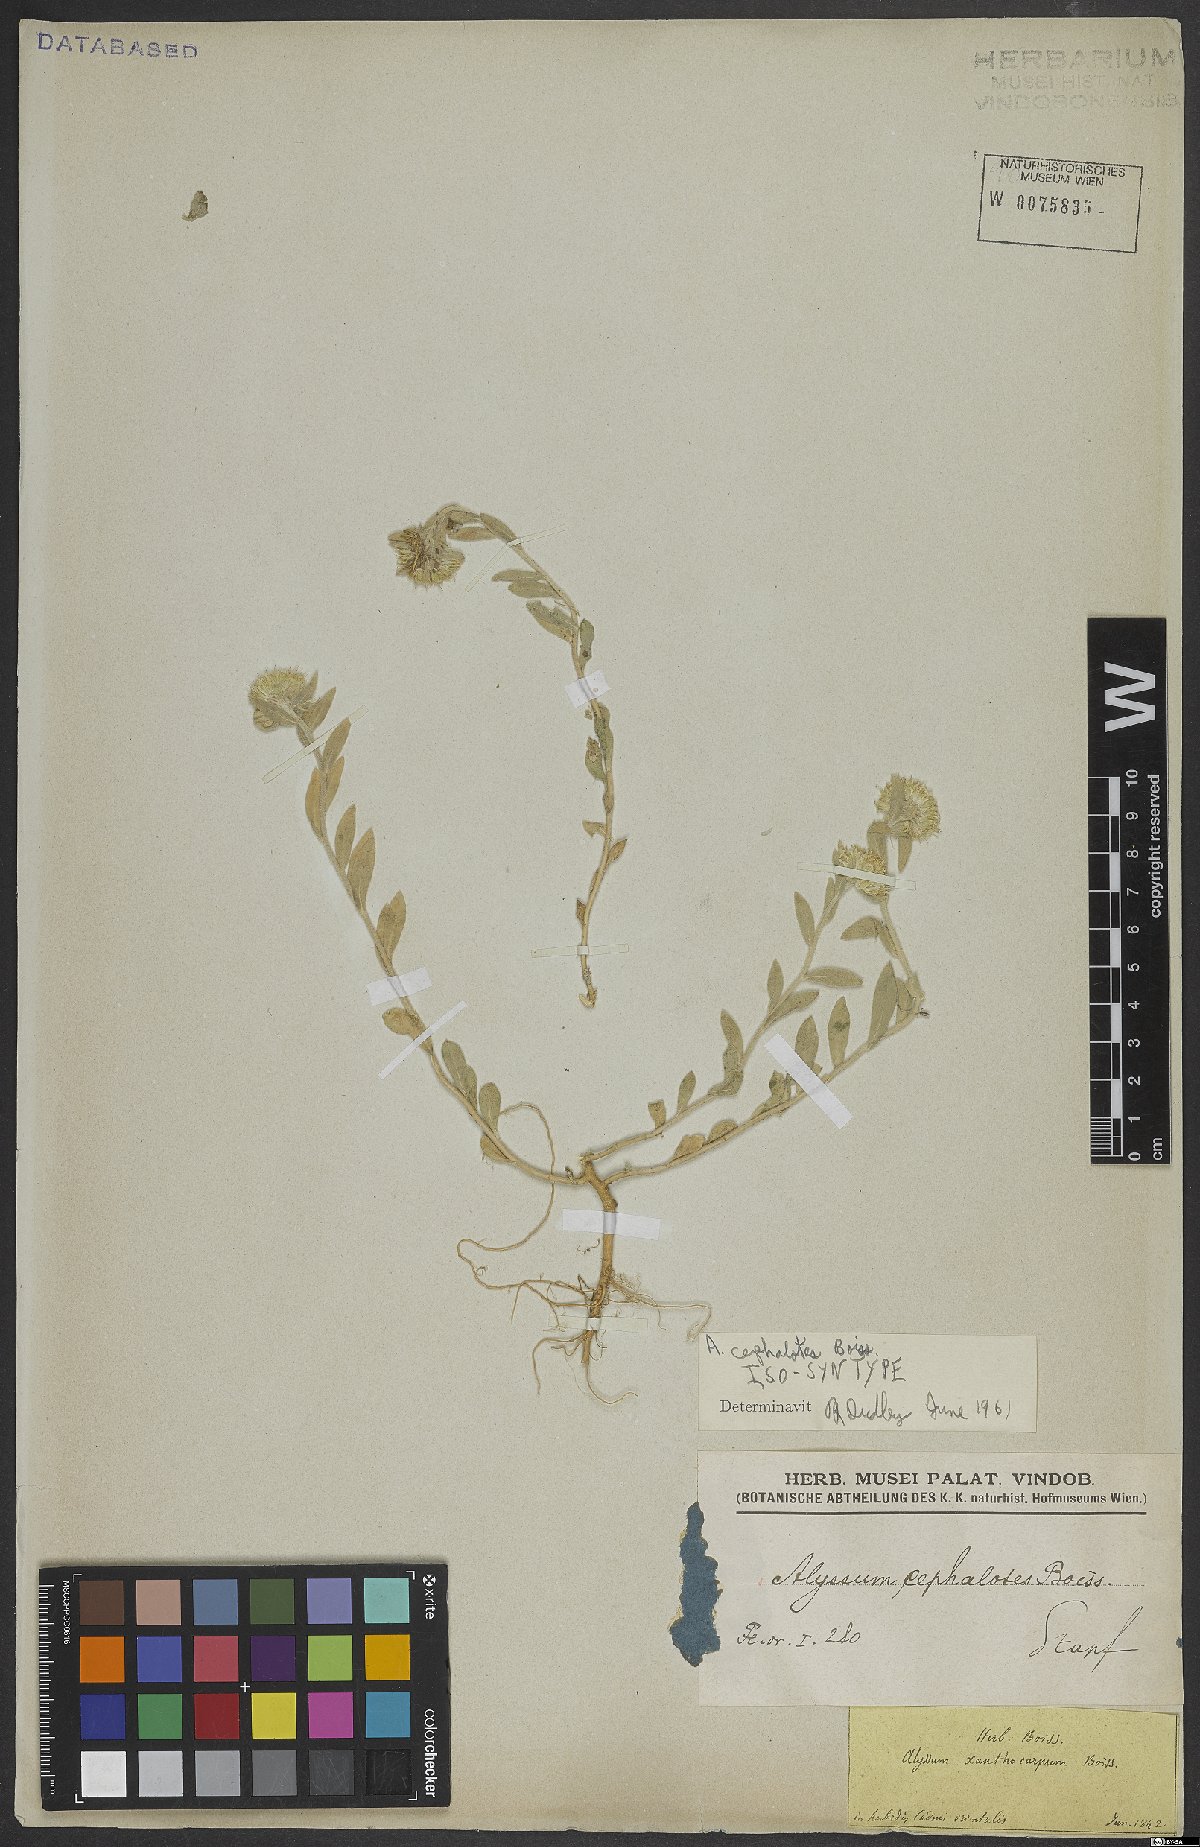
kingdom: Plantae
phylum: Tracheophyta
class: Magnoliopsida
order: Brassicales
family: Brassicaceae
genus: Alyssum
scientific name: Alyssum cephalotes
